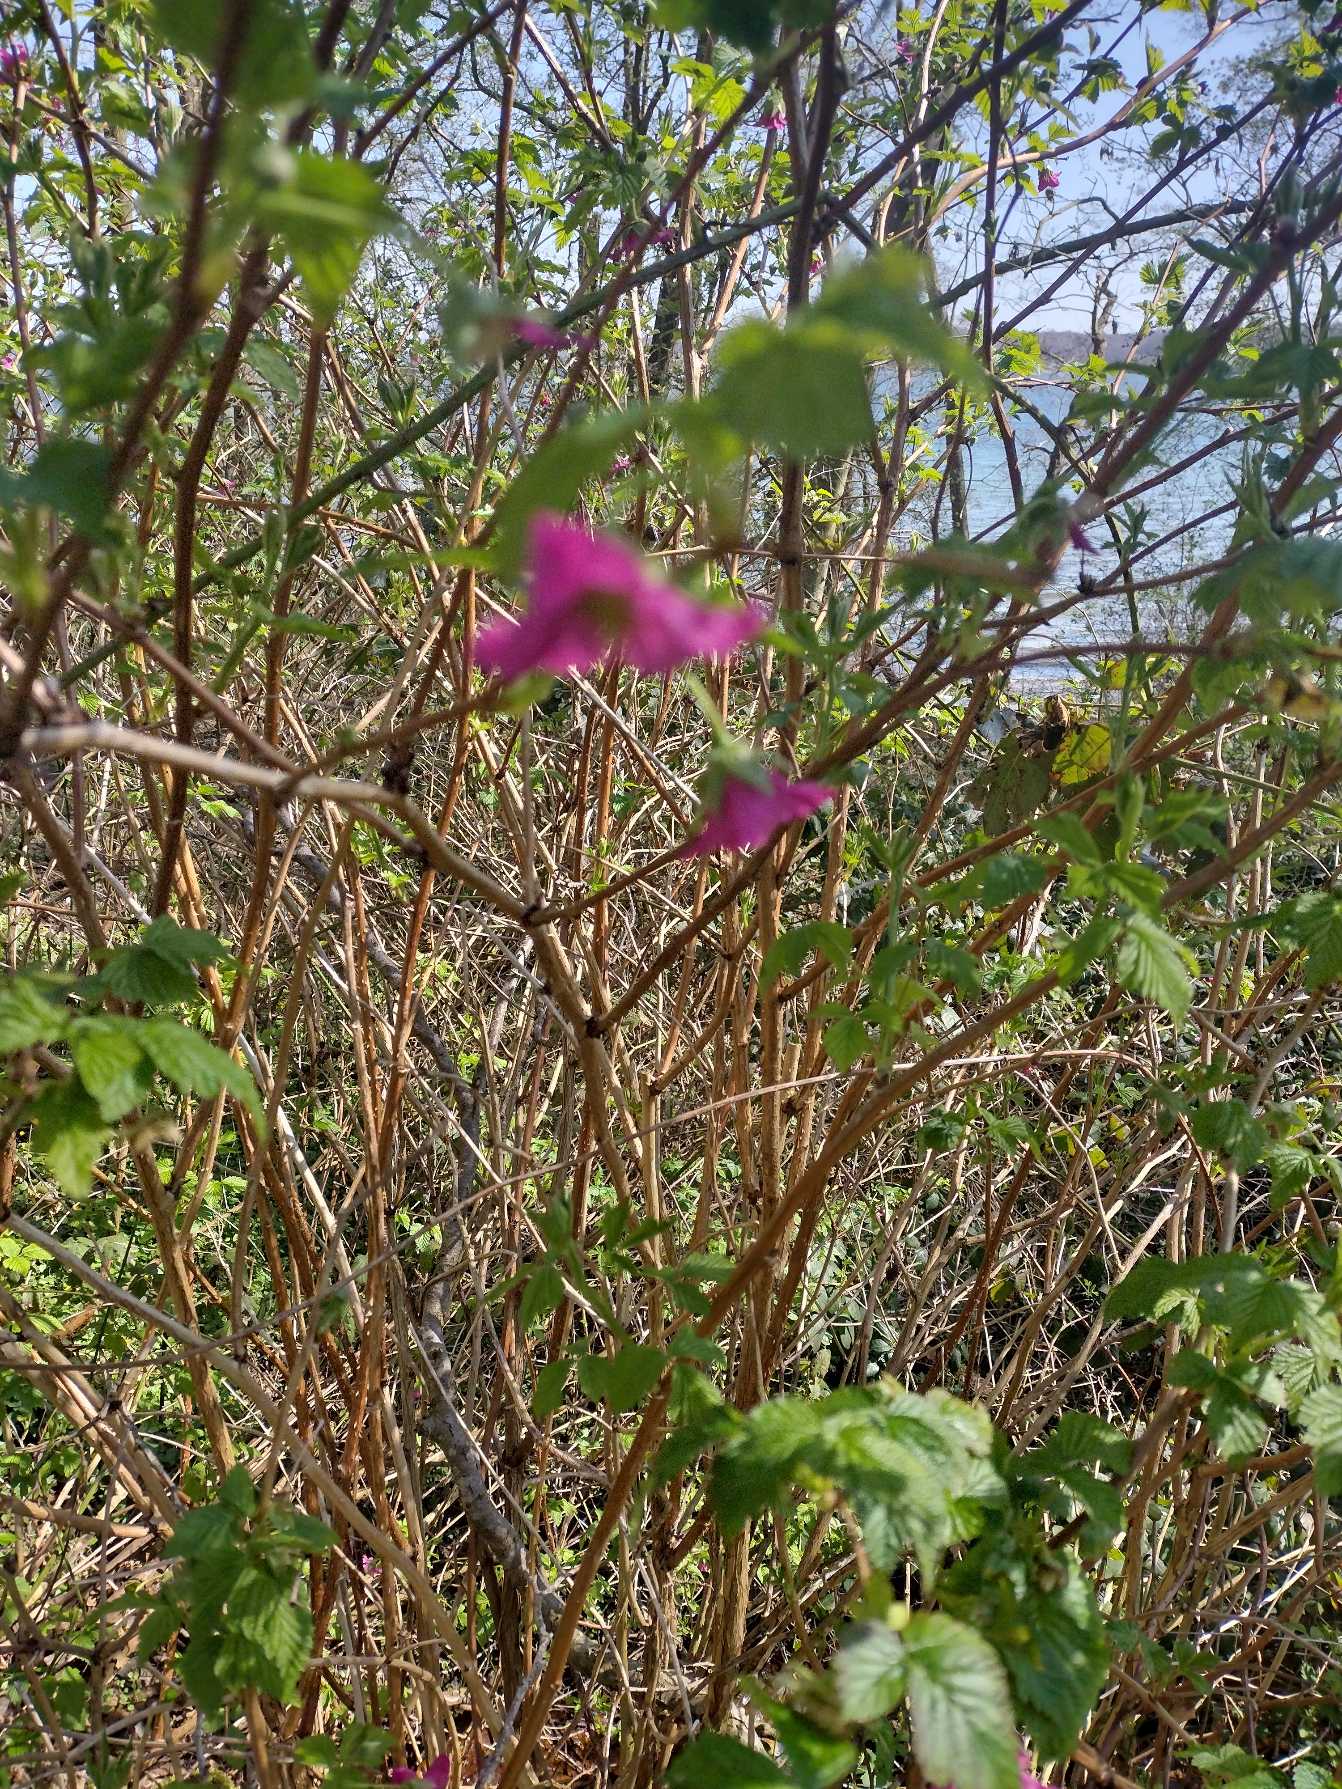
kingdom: Plantae
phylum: Tracheophyta
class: Magnoliopsida
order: Rosales
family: Rosaceae
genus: Rubus
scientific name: Rubus spectabilis
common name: Laksebær
